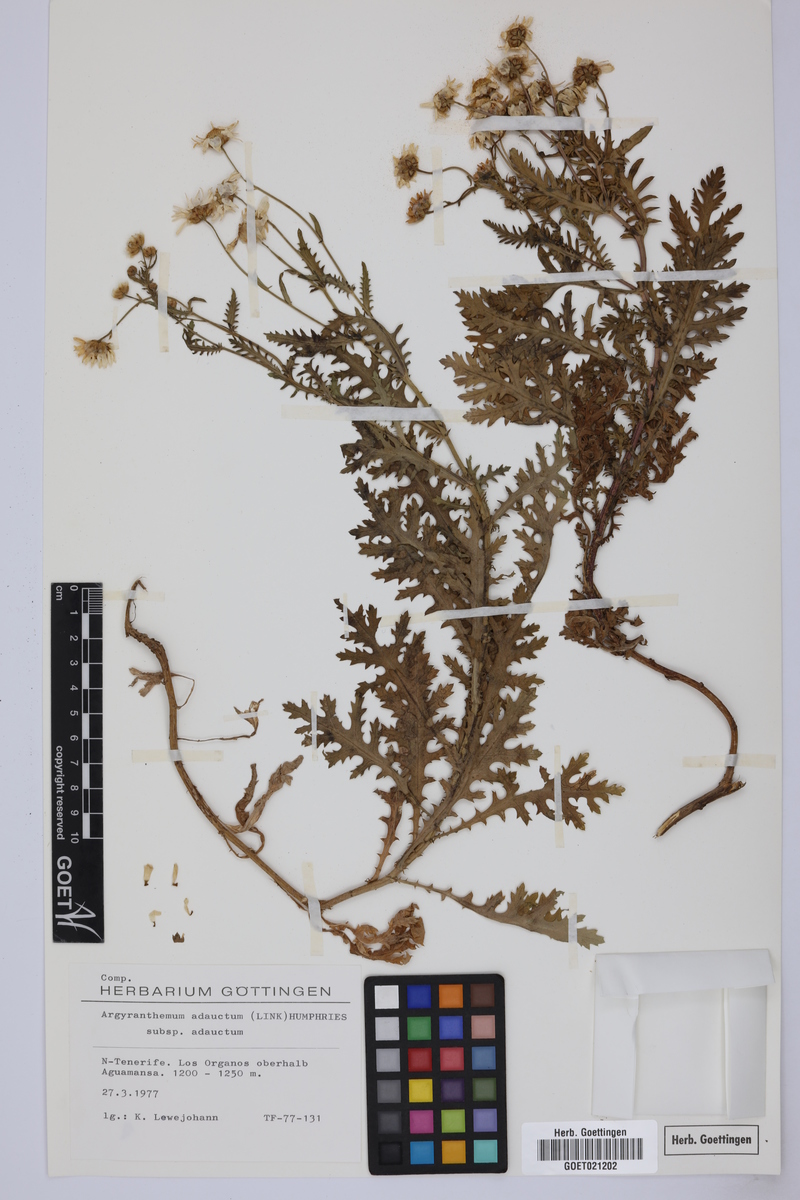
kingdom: Plantae
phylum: Tracheophyta
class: Magnoliopsida
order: Asterales
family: Asteraceae
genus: Argyranthemum
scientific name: Argyranthemum adauctum
